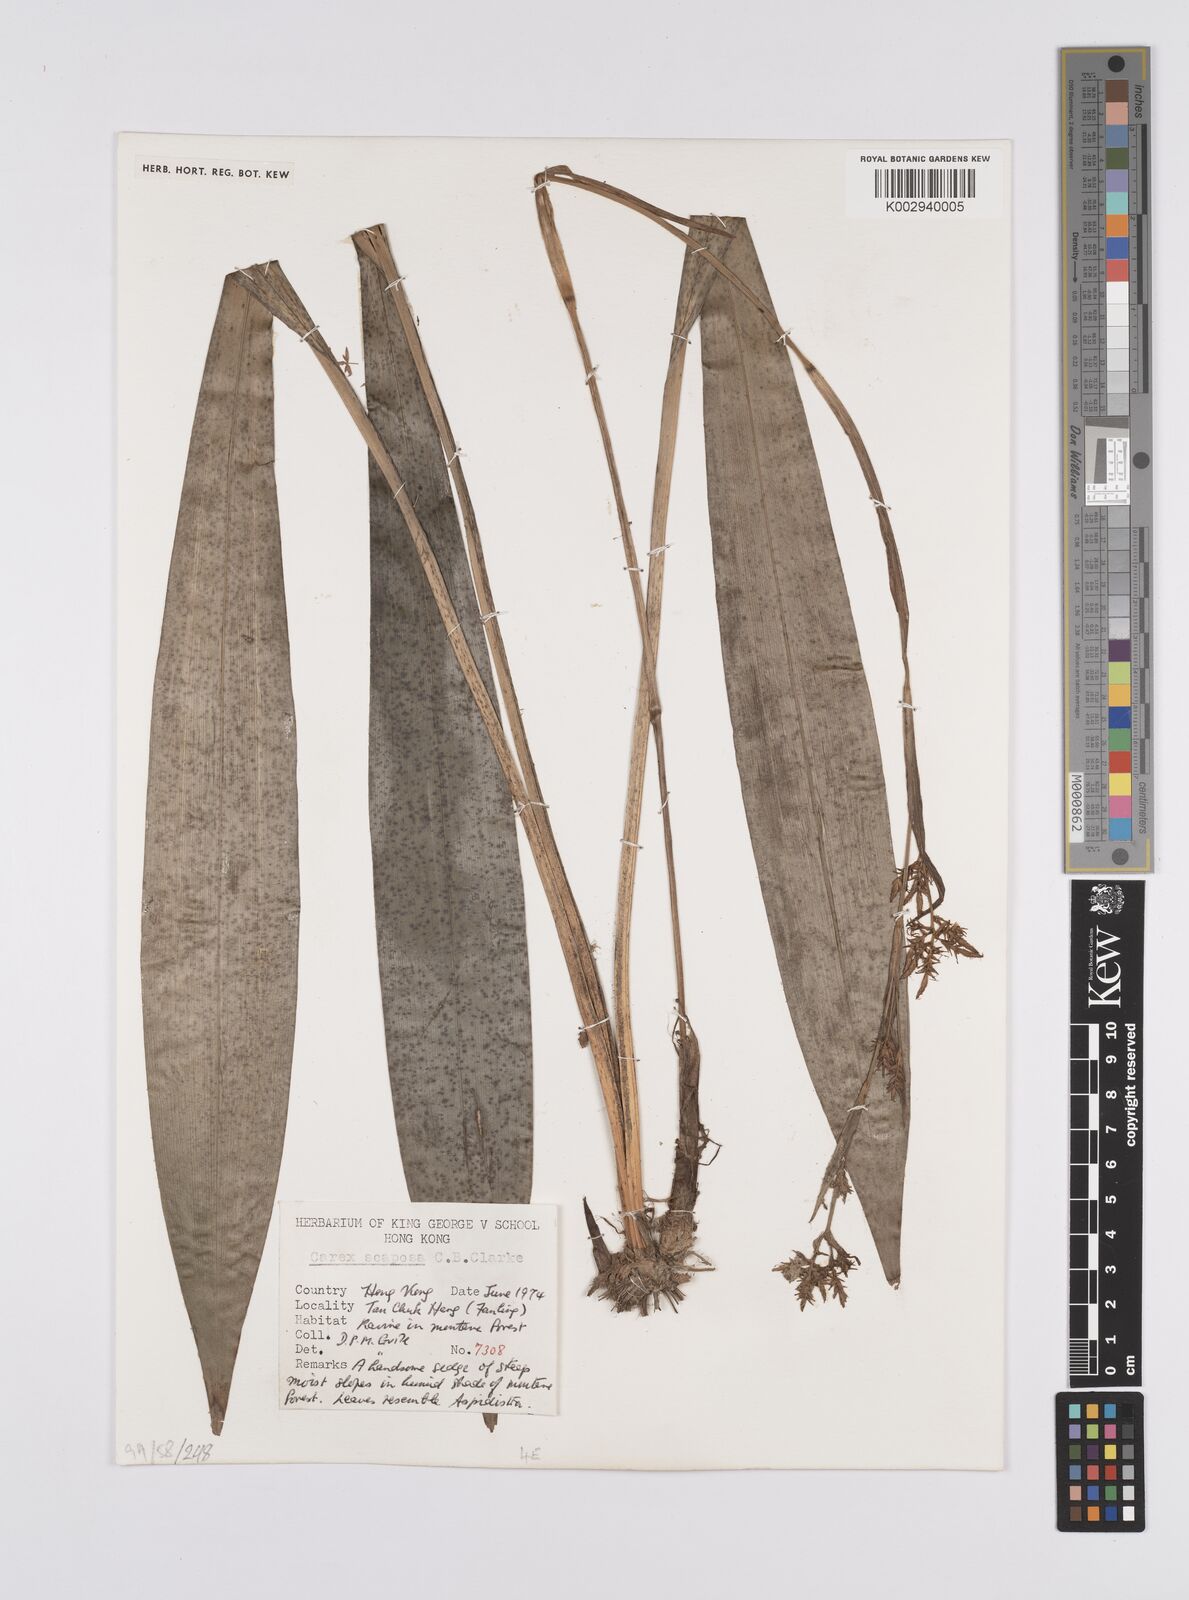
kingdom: Plantae
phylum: Tracheophyta
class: Liliopsida
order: Poales
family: Cyperaceae
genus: Carex
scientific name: Carex scaposa
